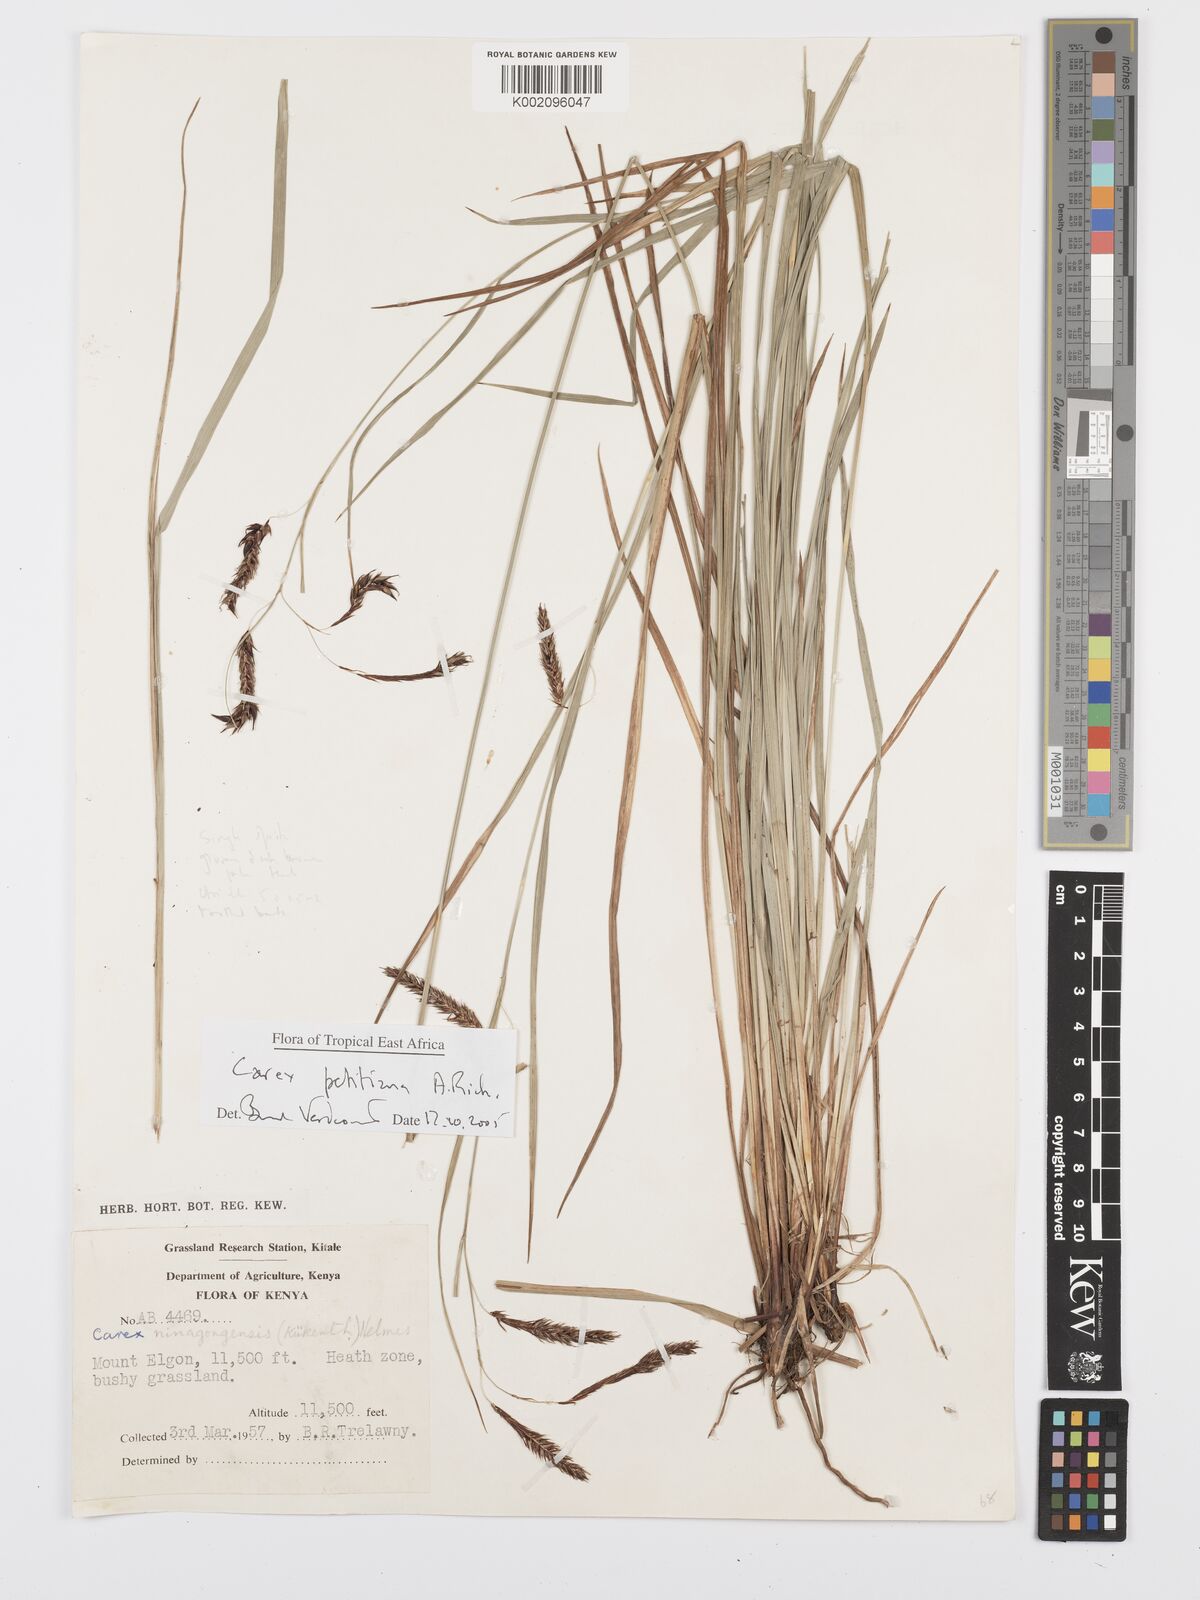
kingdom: Plantae
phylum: Tracheophyta
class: Liliopsida
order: Poales
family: Cyperaceae
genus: Carex
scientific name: Carex petitiana
